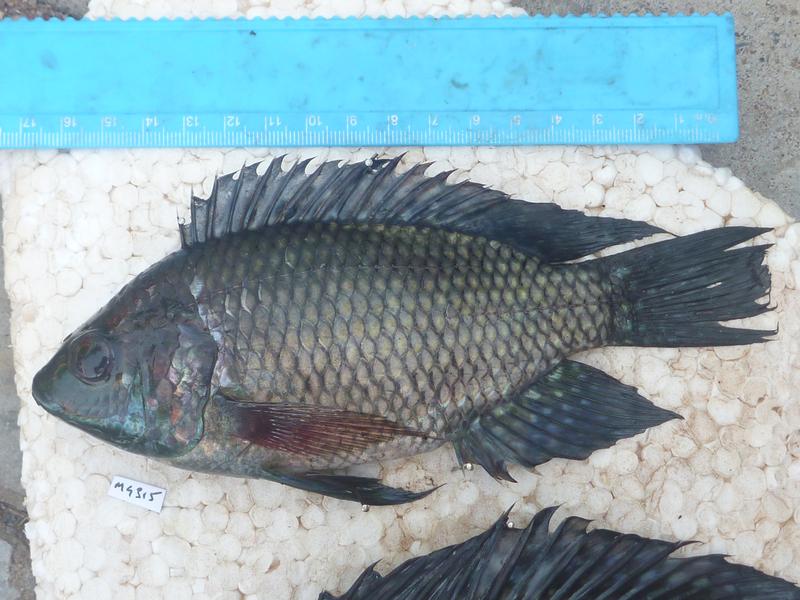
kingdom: Animalia
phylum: Chordata
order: Perciformes
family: Cichlidae
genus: Oreochromis
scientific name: Oreochromis leucostictus
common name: Blue spotted tilapia
